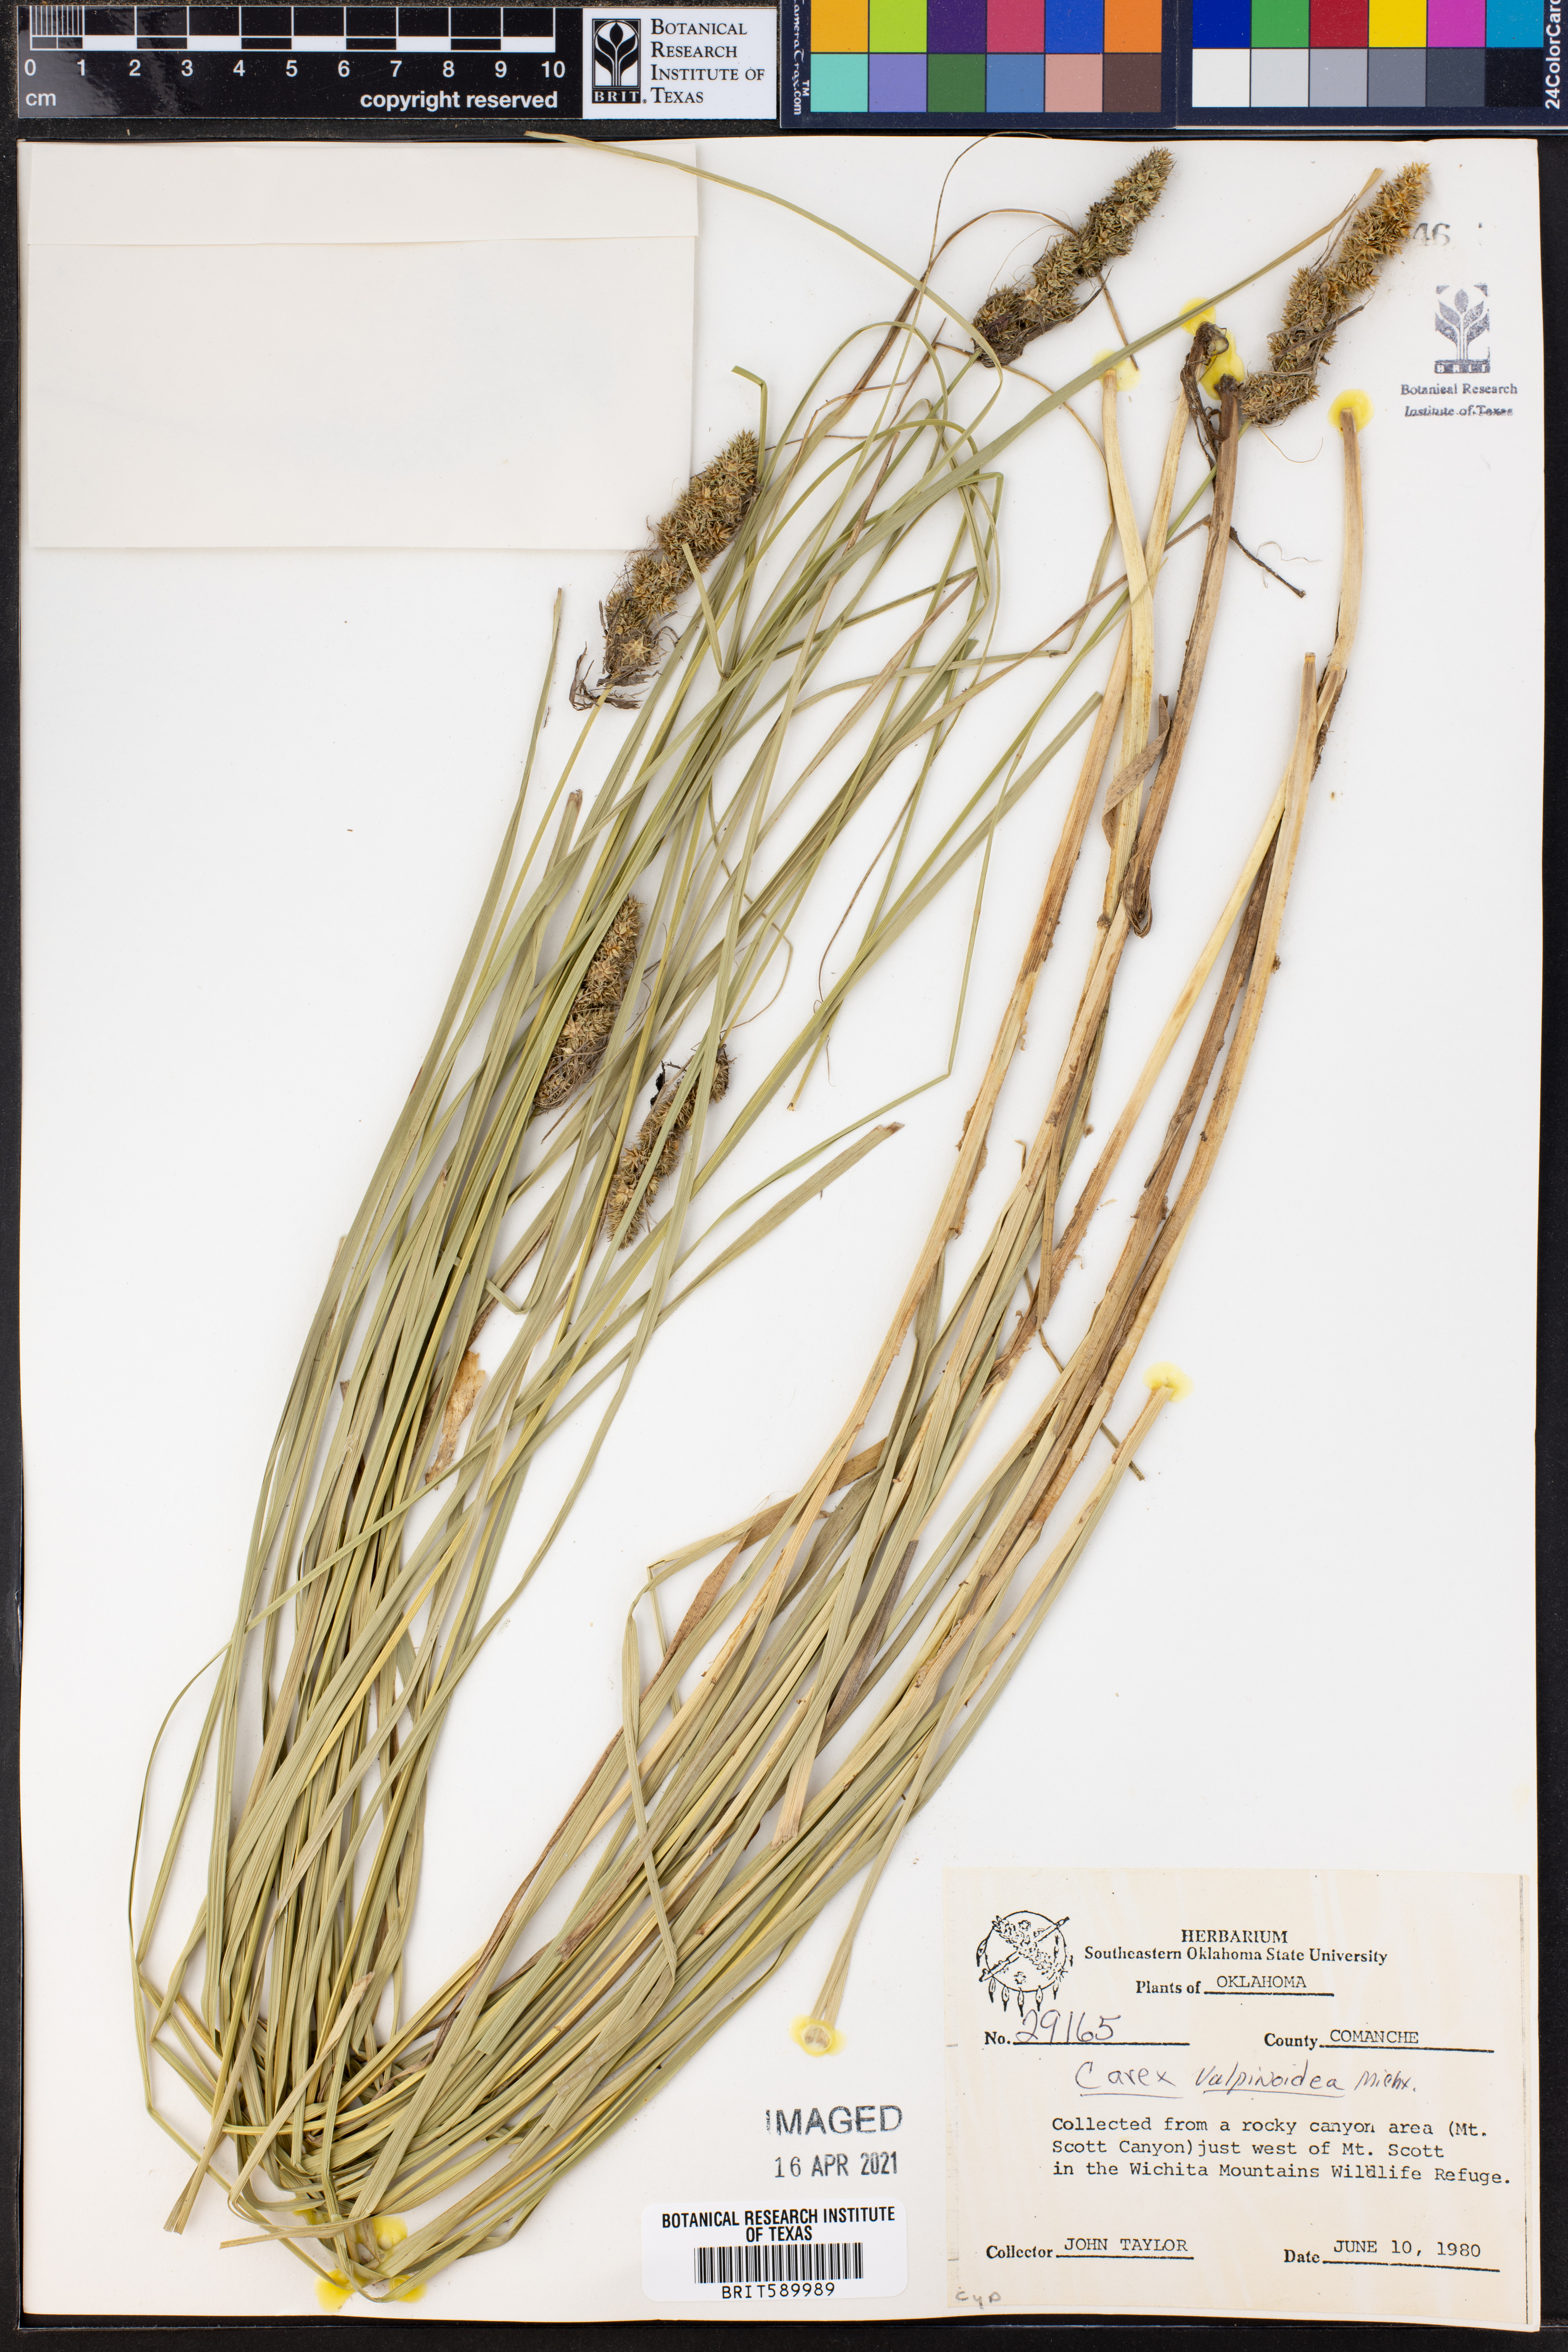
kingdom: Plantae
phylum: Tracheophyta
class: Liliopsida
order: Poales
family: Cyperaceae
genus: Carex
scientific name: Carex vulpinoidea
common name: American fox-sedge
